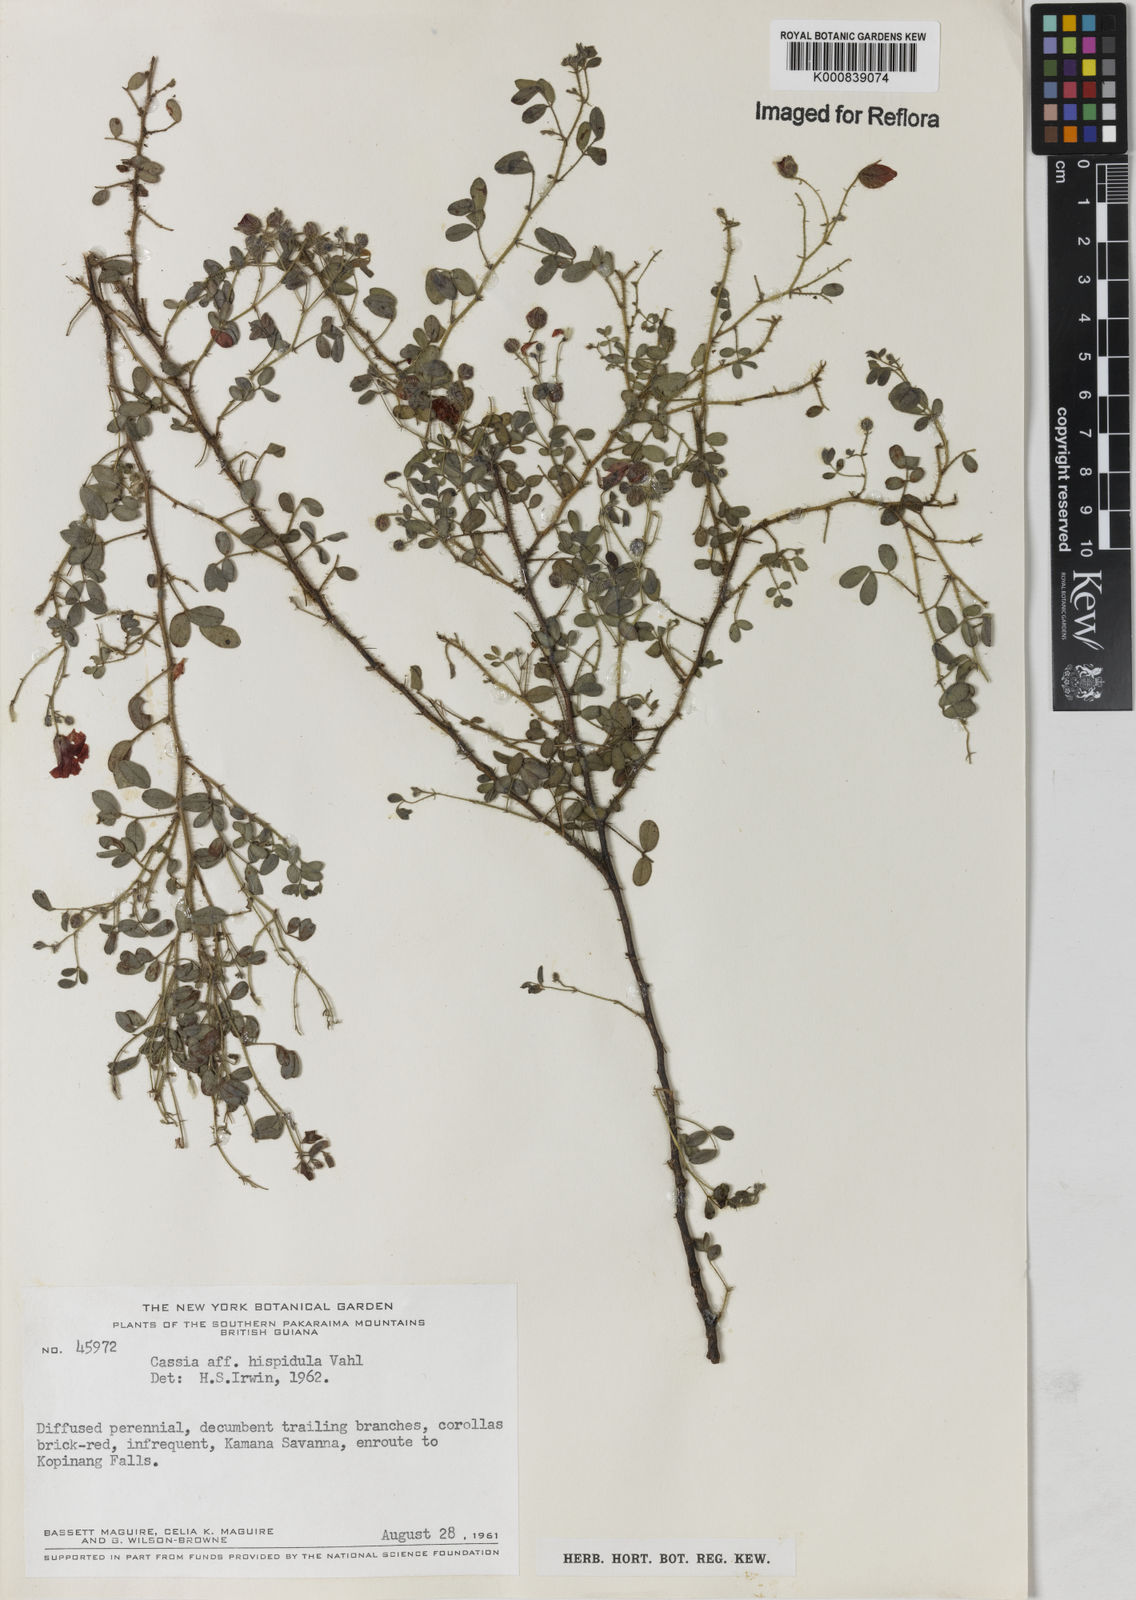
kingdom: Plantae
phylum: Tracheophyta
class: Magnoliopsida
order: Fabales
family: Fabaceae
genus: Chamaecrista
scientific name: Chamaecrista fagonioides
